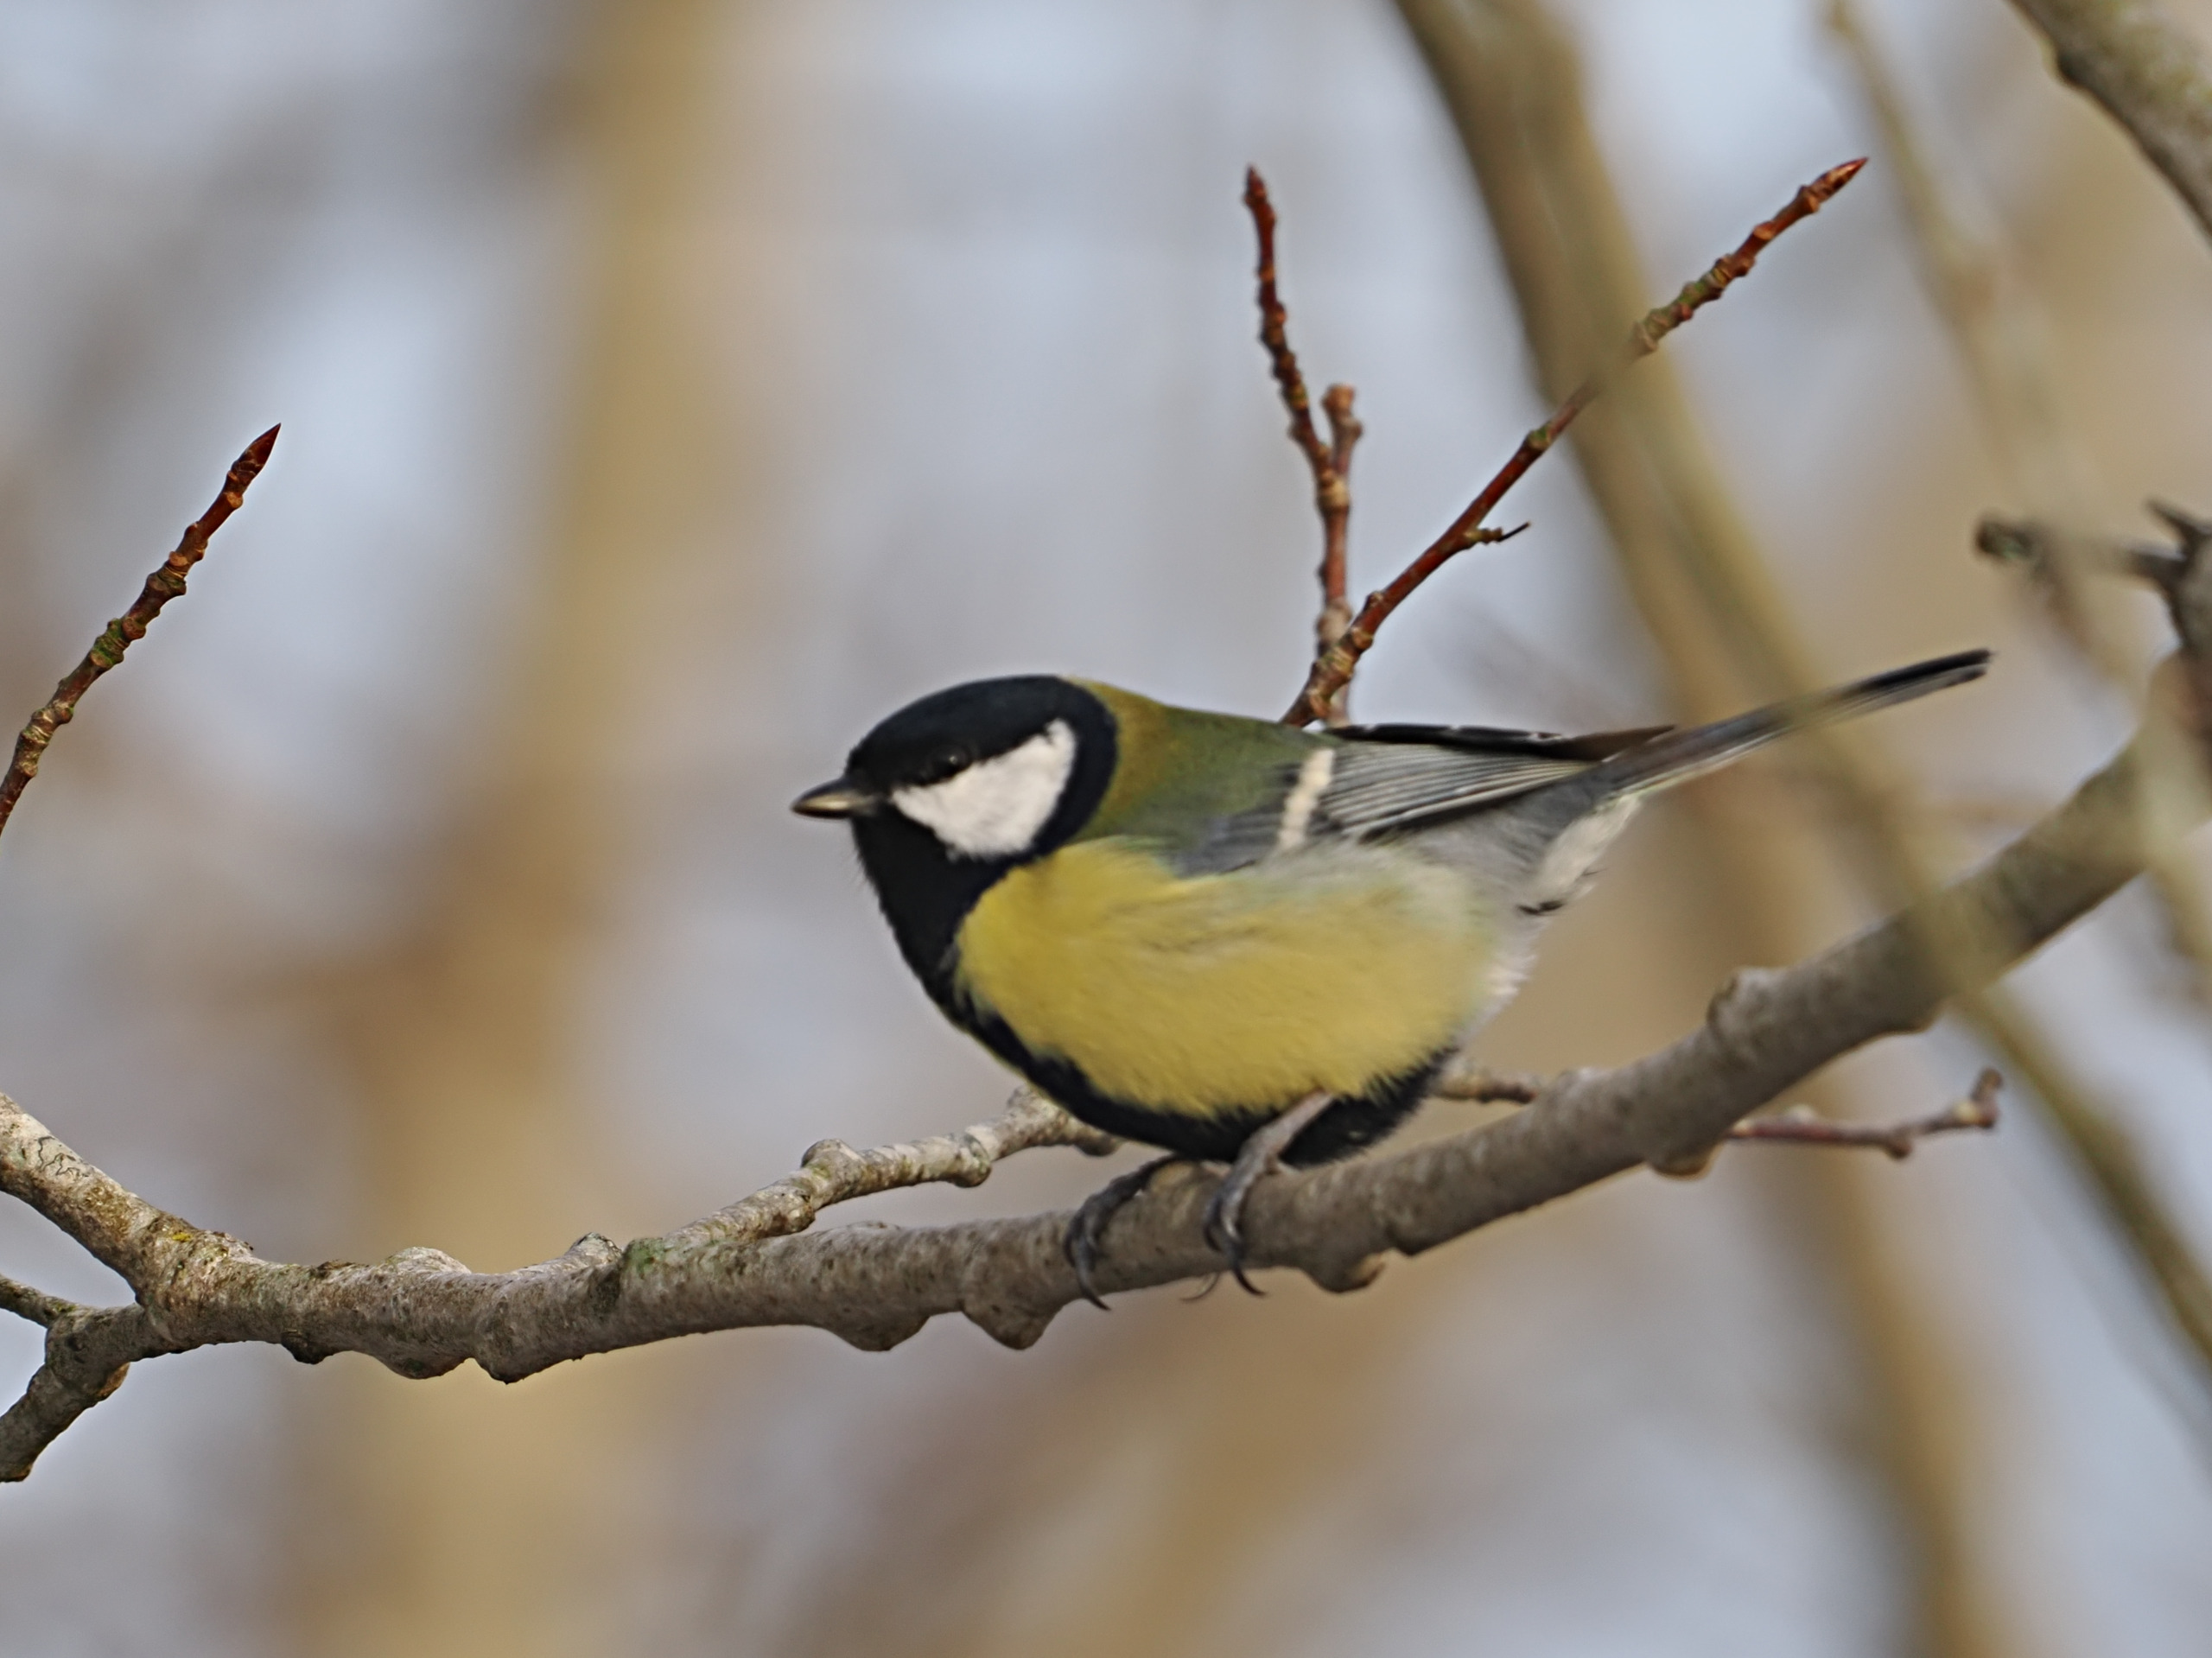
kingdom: Animalia
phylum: Chordata
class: Aves
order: Passeriformes
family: Paridae
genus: Parus
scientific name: Parus major
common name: Musvit
